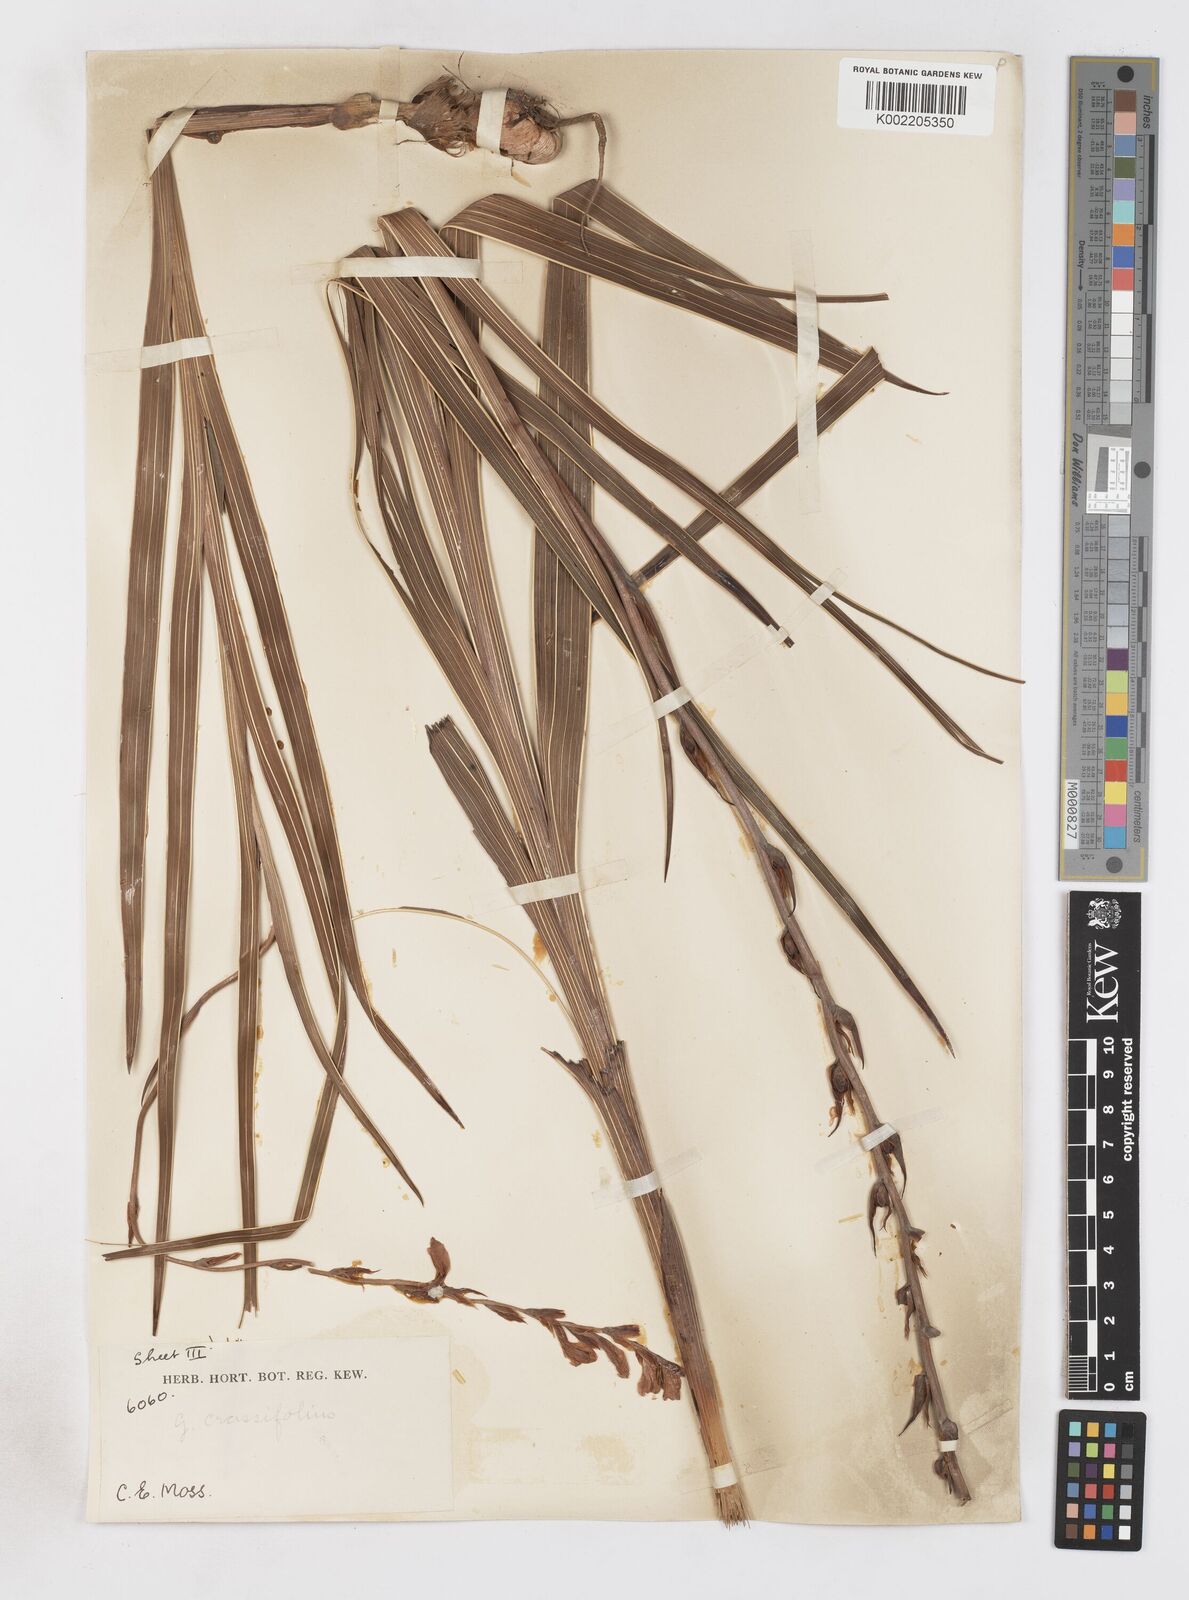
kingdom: Plantae
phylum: Tracheophyta
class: Liliopsida
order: Asparagales
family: Iridaceae
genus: Gladiolus
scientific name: Gladiolus crassifolius
